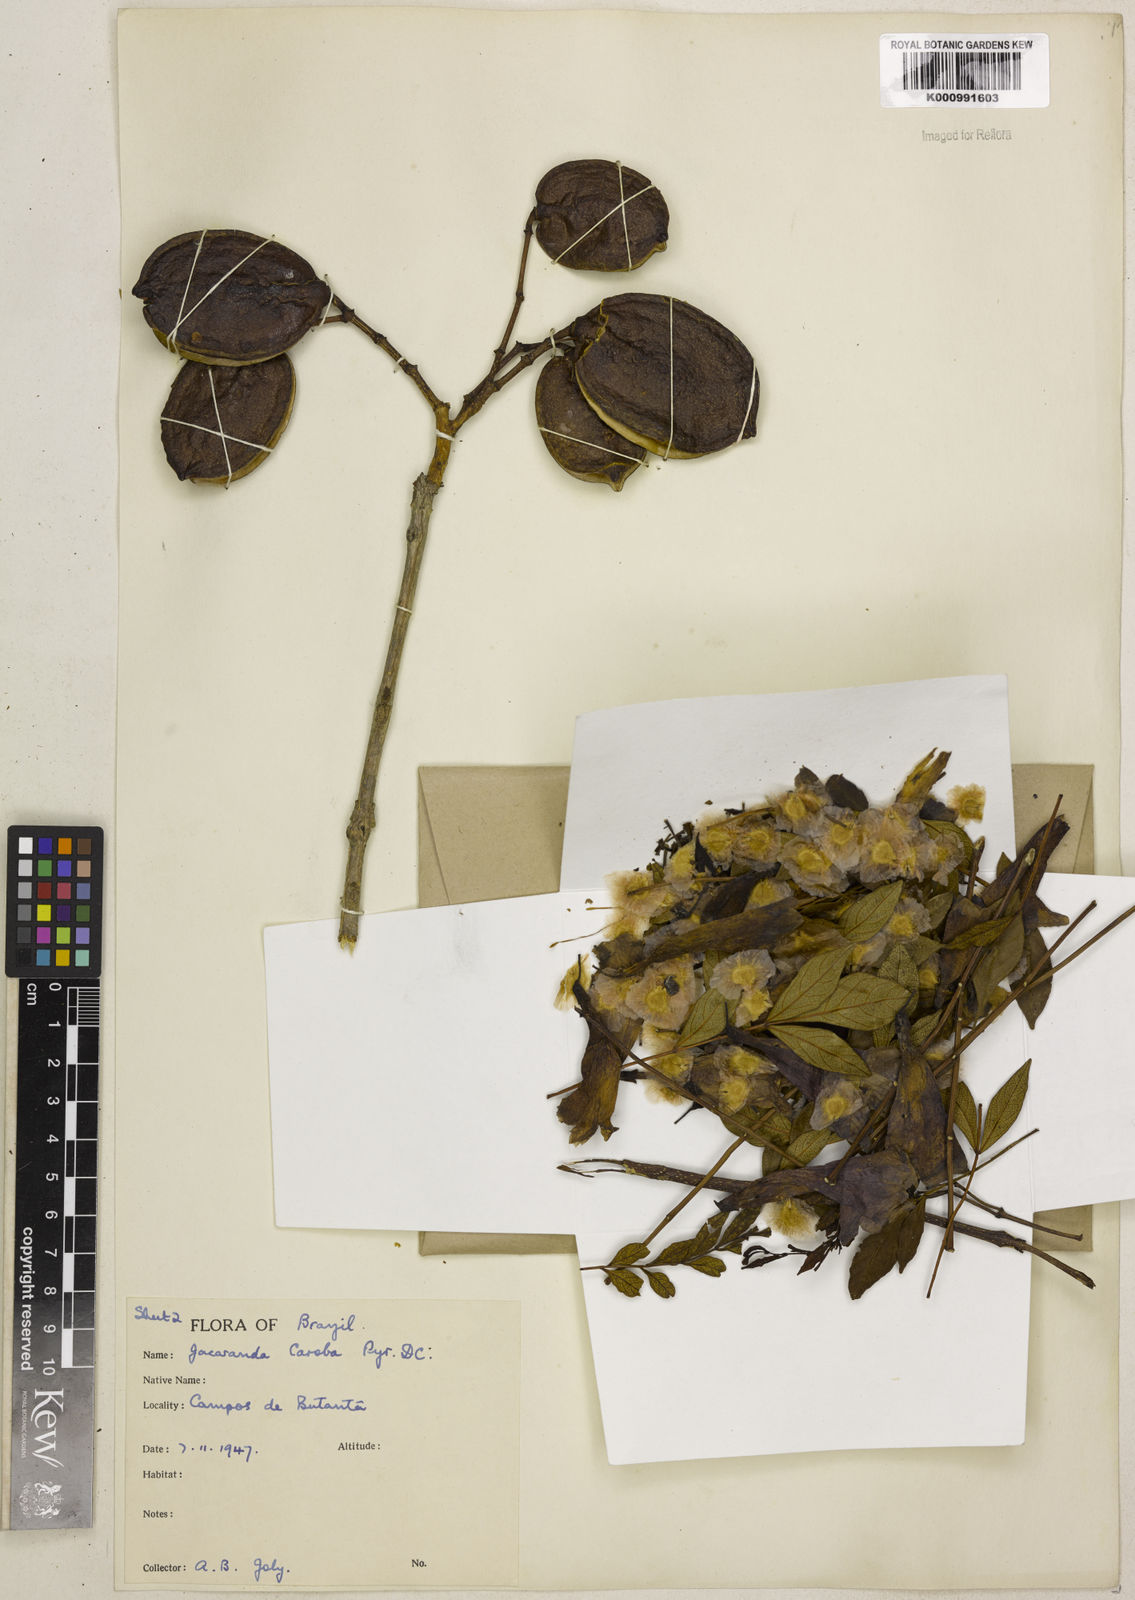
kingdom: Plantae
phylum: Tracheophyta
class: Magnoliopsida
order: Lamiales
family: Bignoniaceae
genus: Jacaranda
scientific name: Jacaranda caroba
